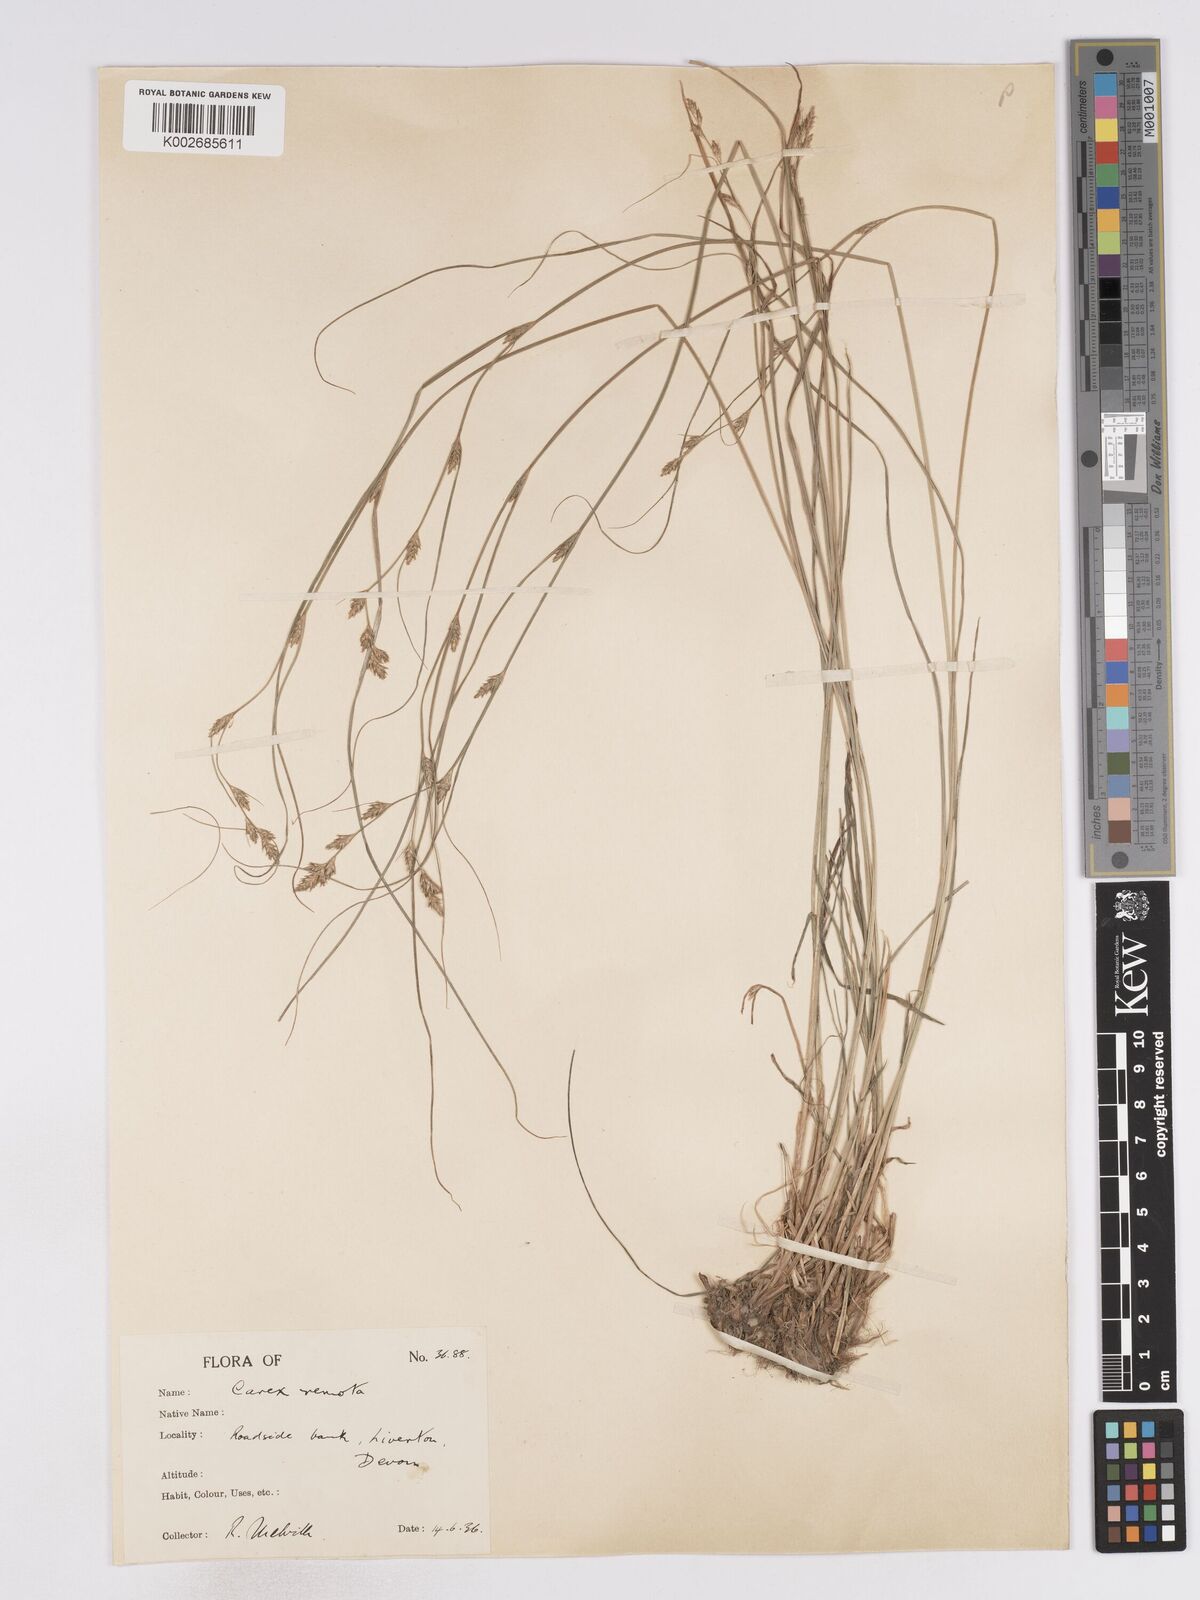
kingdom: Plantae
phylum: Tracheophyta
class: Liliopsida
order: Poales
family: Cyperaceae
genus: Carex
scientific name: Carex remota
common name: Remote sedge
